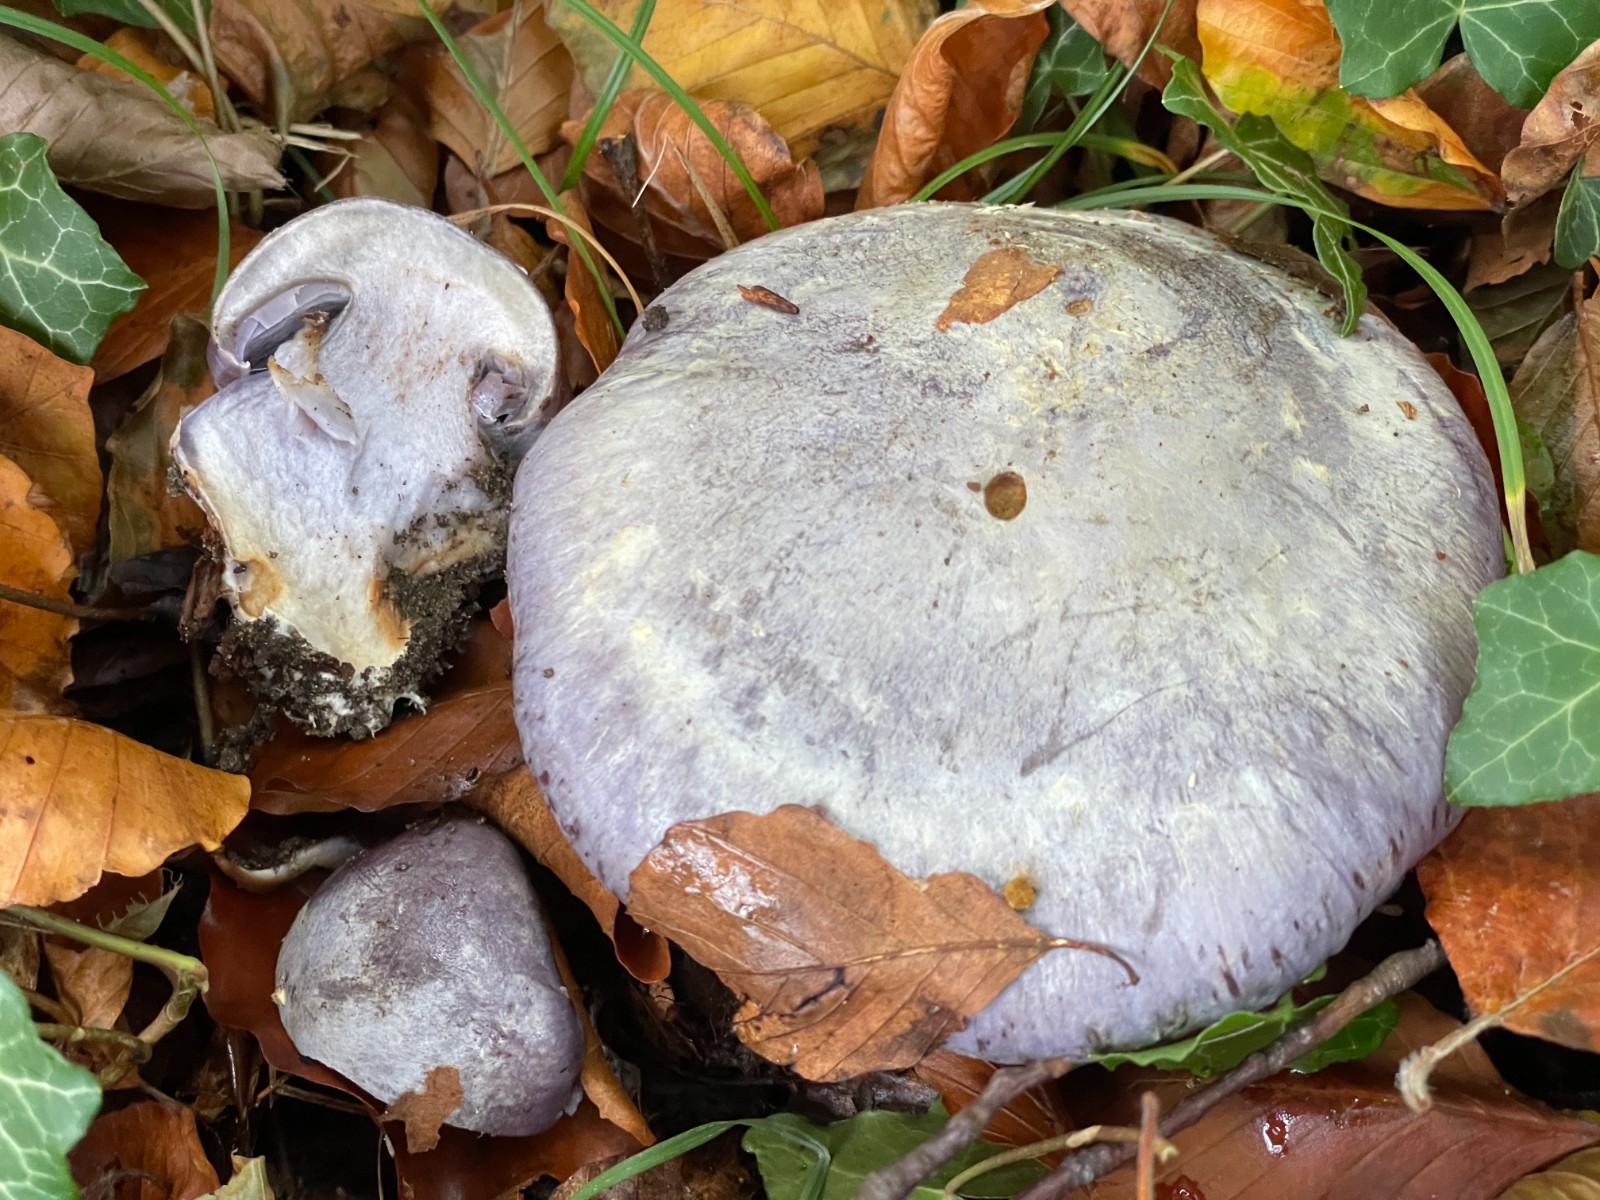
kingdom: Fungi
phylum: Basidiomycota
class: Agaricomycetes
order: Agaricales
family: Cortinariaceae
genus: Cortinarius
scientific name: Cortinarius caerulescens
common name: blåkødet slørhat
